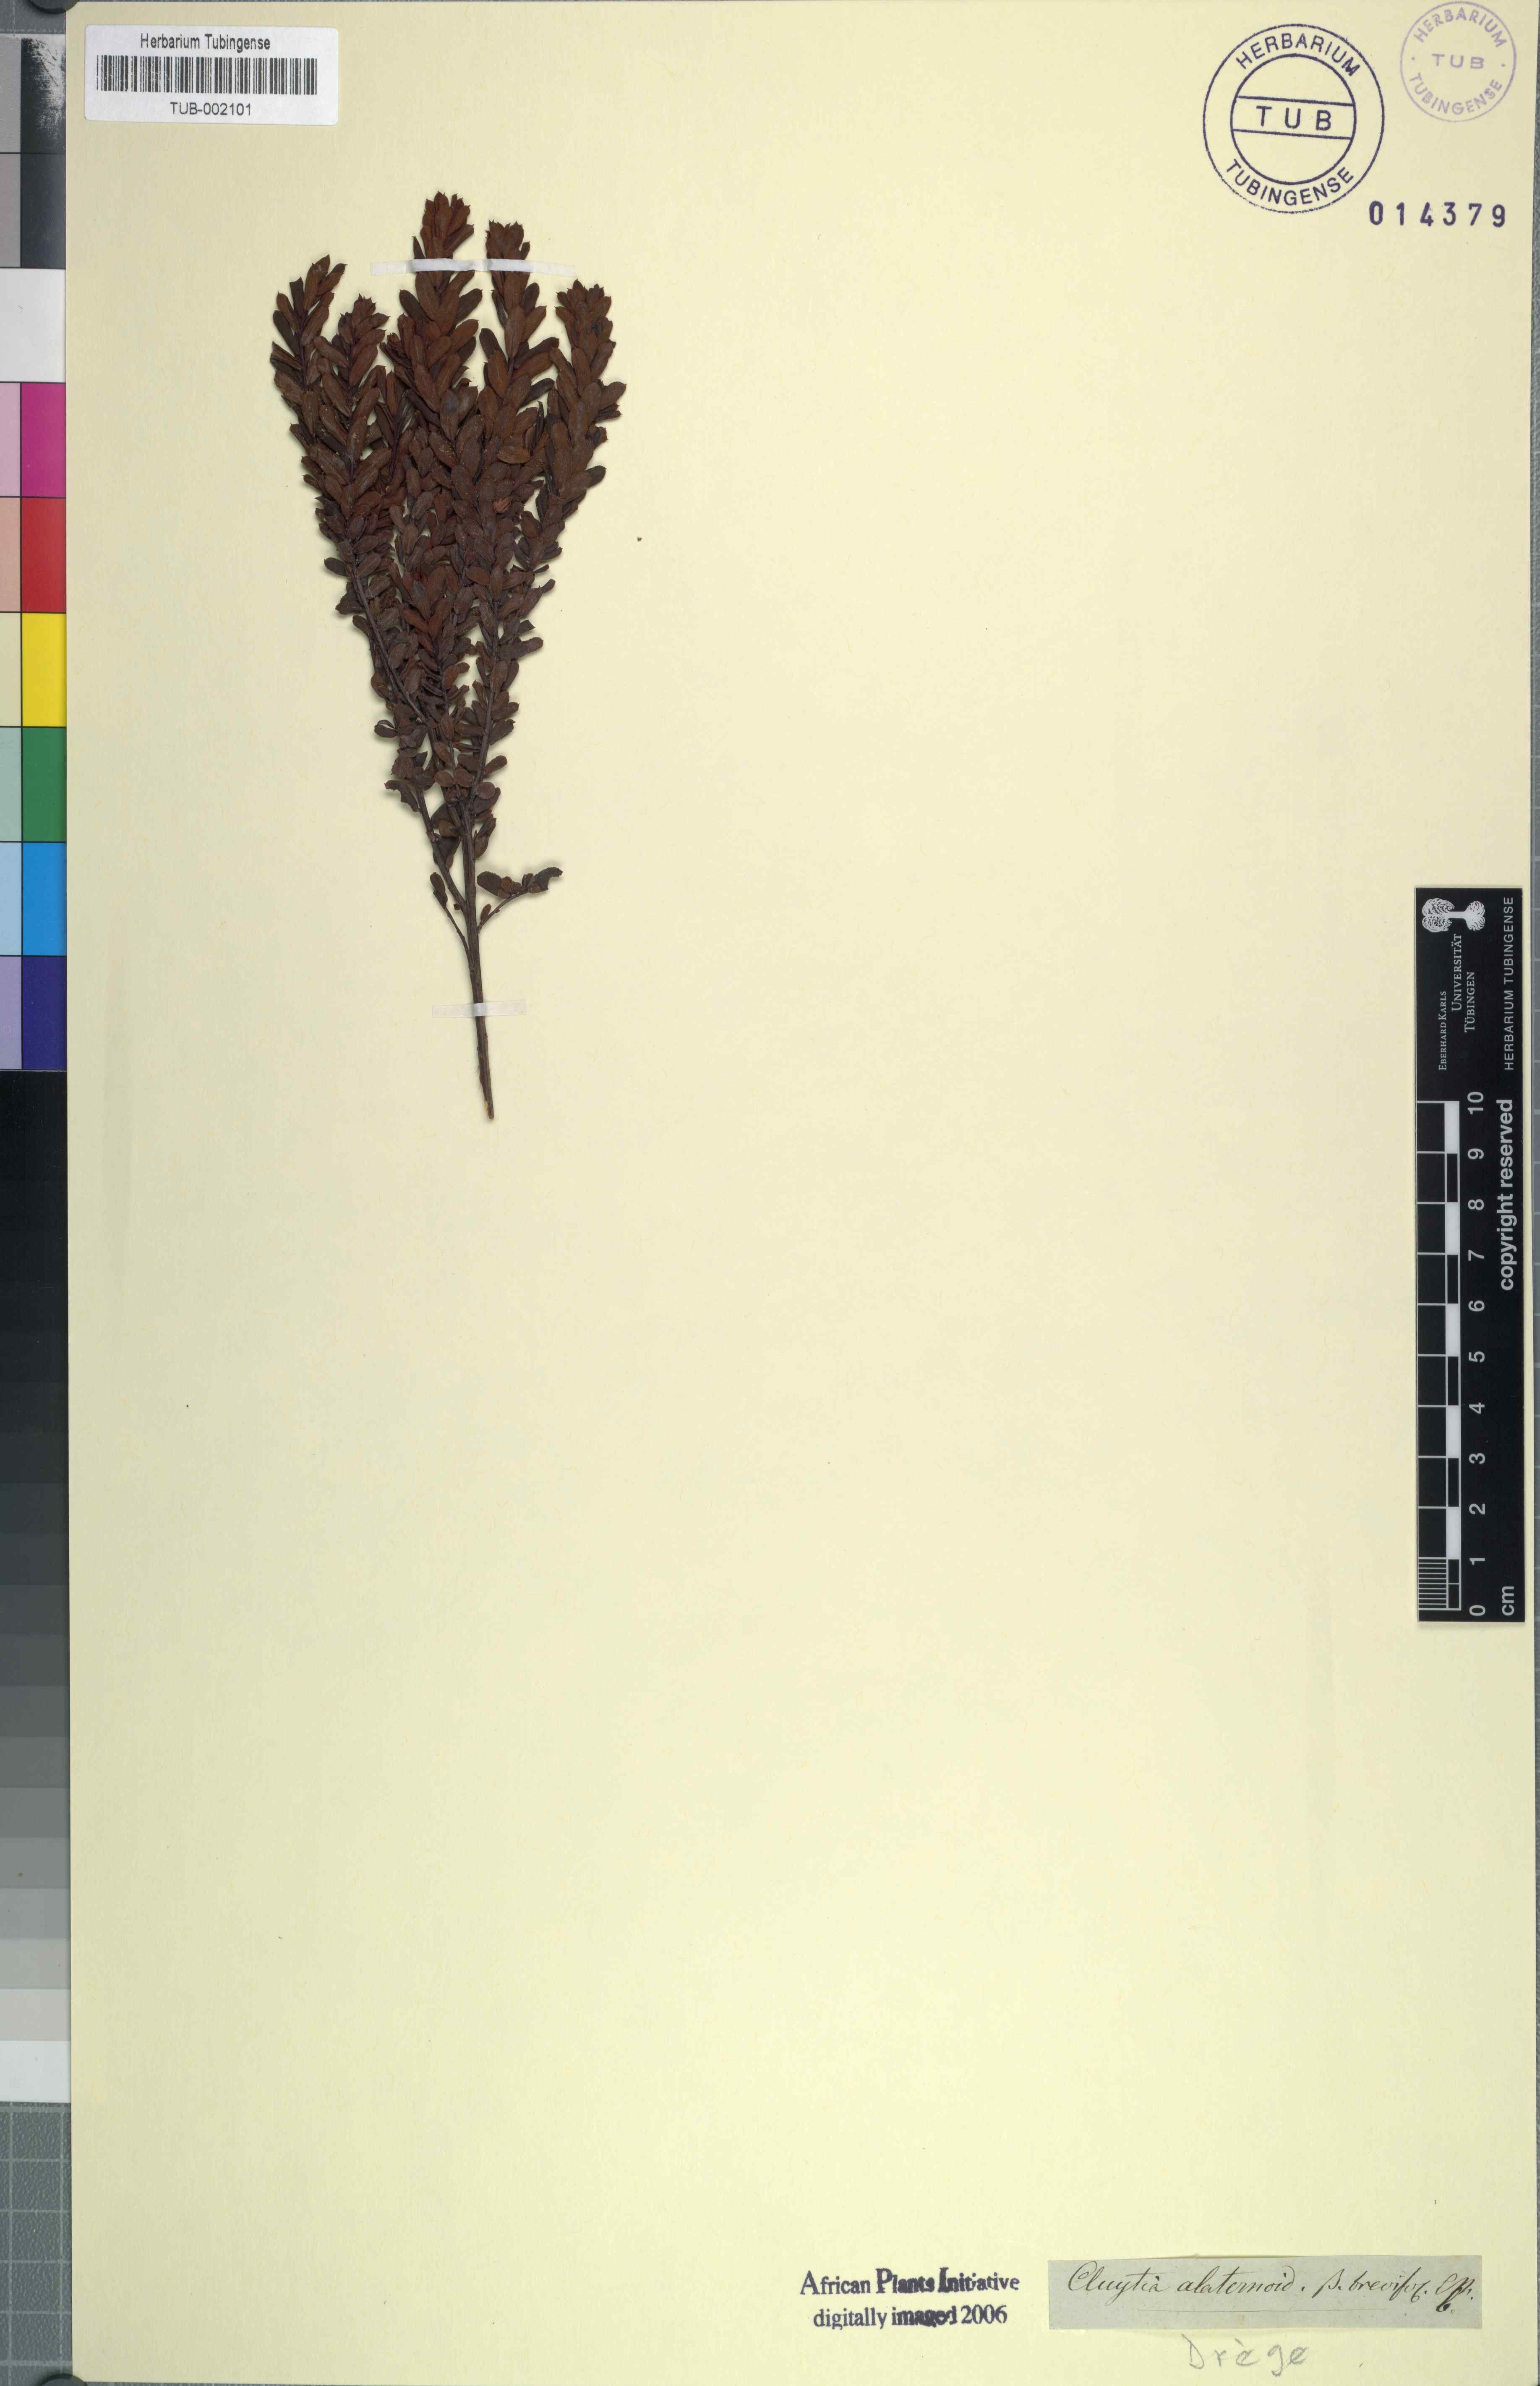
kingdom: Plantae
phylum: Tracheophyta
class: Magnoliopsida
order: Malpighiales
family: Peraceae
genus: Clutia
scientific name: Clutia alaternoides
